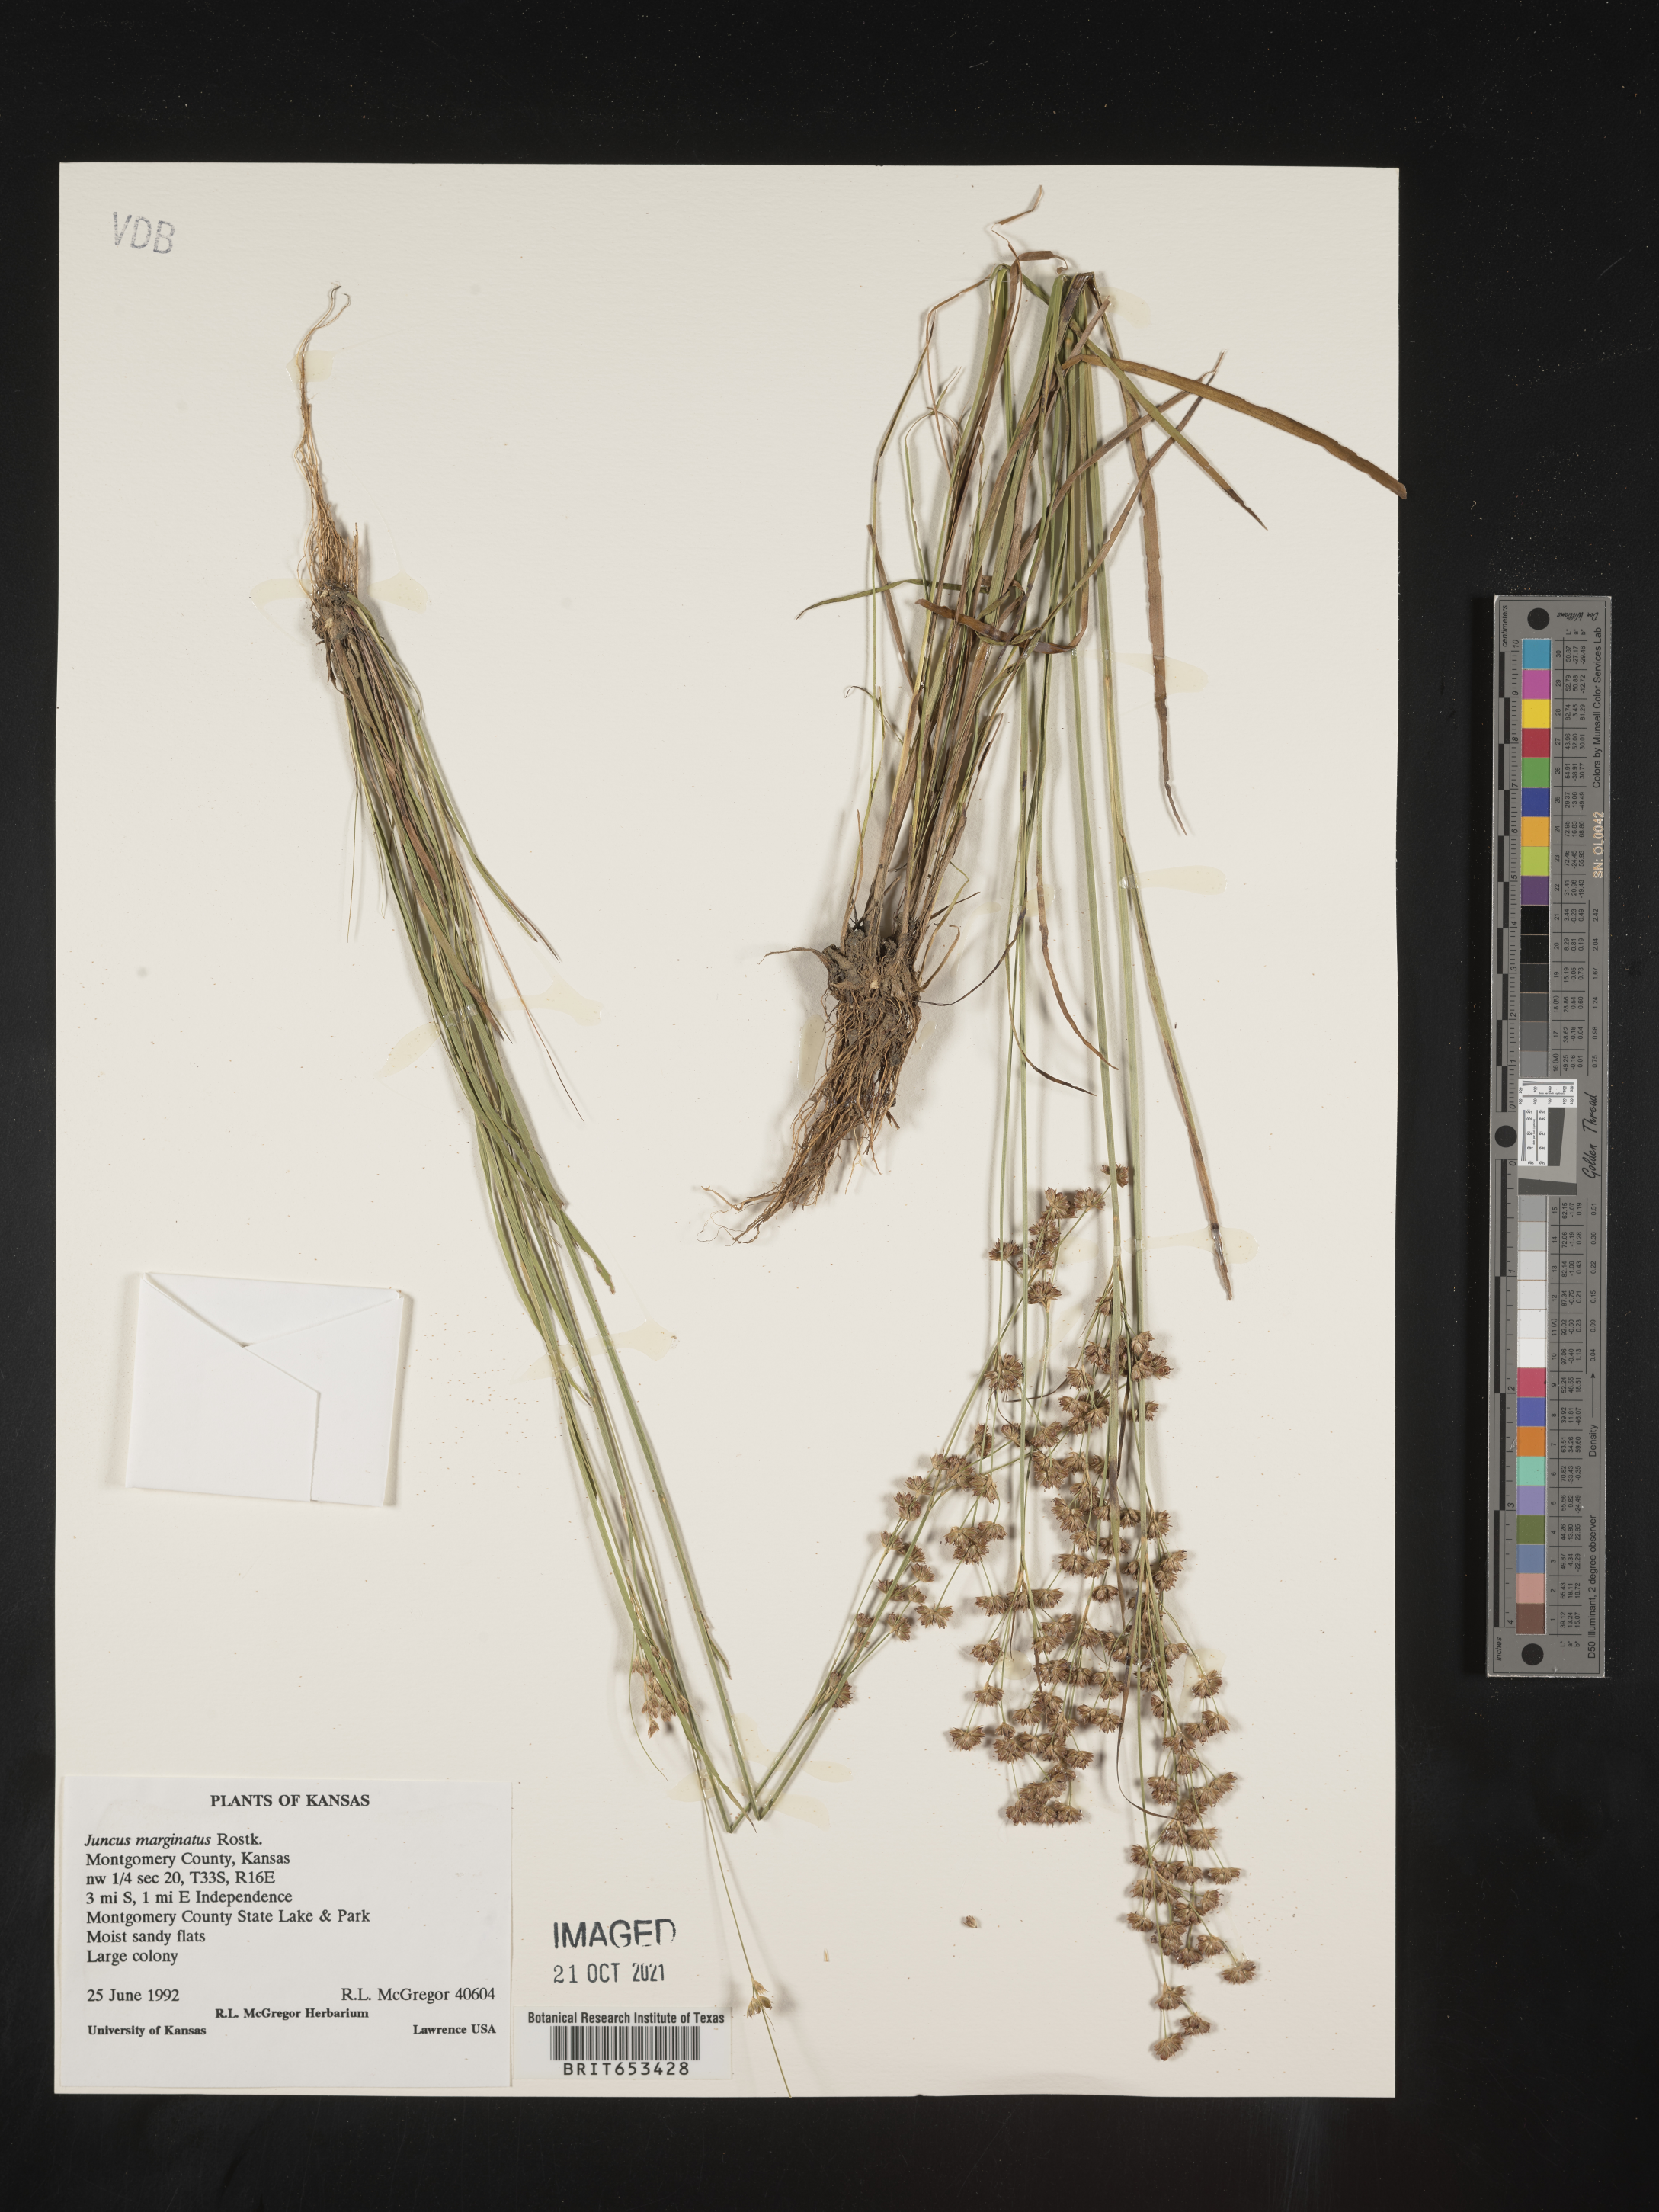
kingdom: Plantae
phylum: Tracheophyta
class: Liliopsida
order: Poales
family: Juncaceae
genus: Juncus
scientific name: Juncus marginatus
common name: Grass-leaf rush
